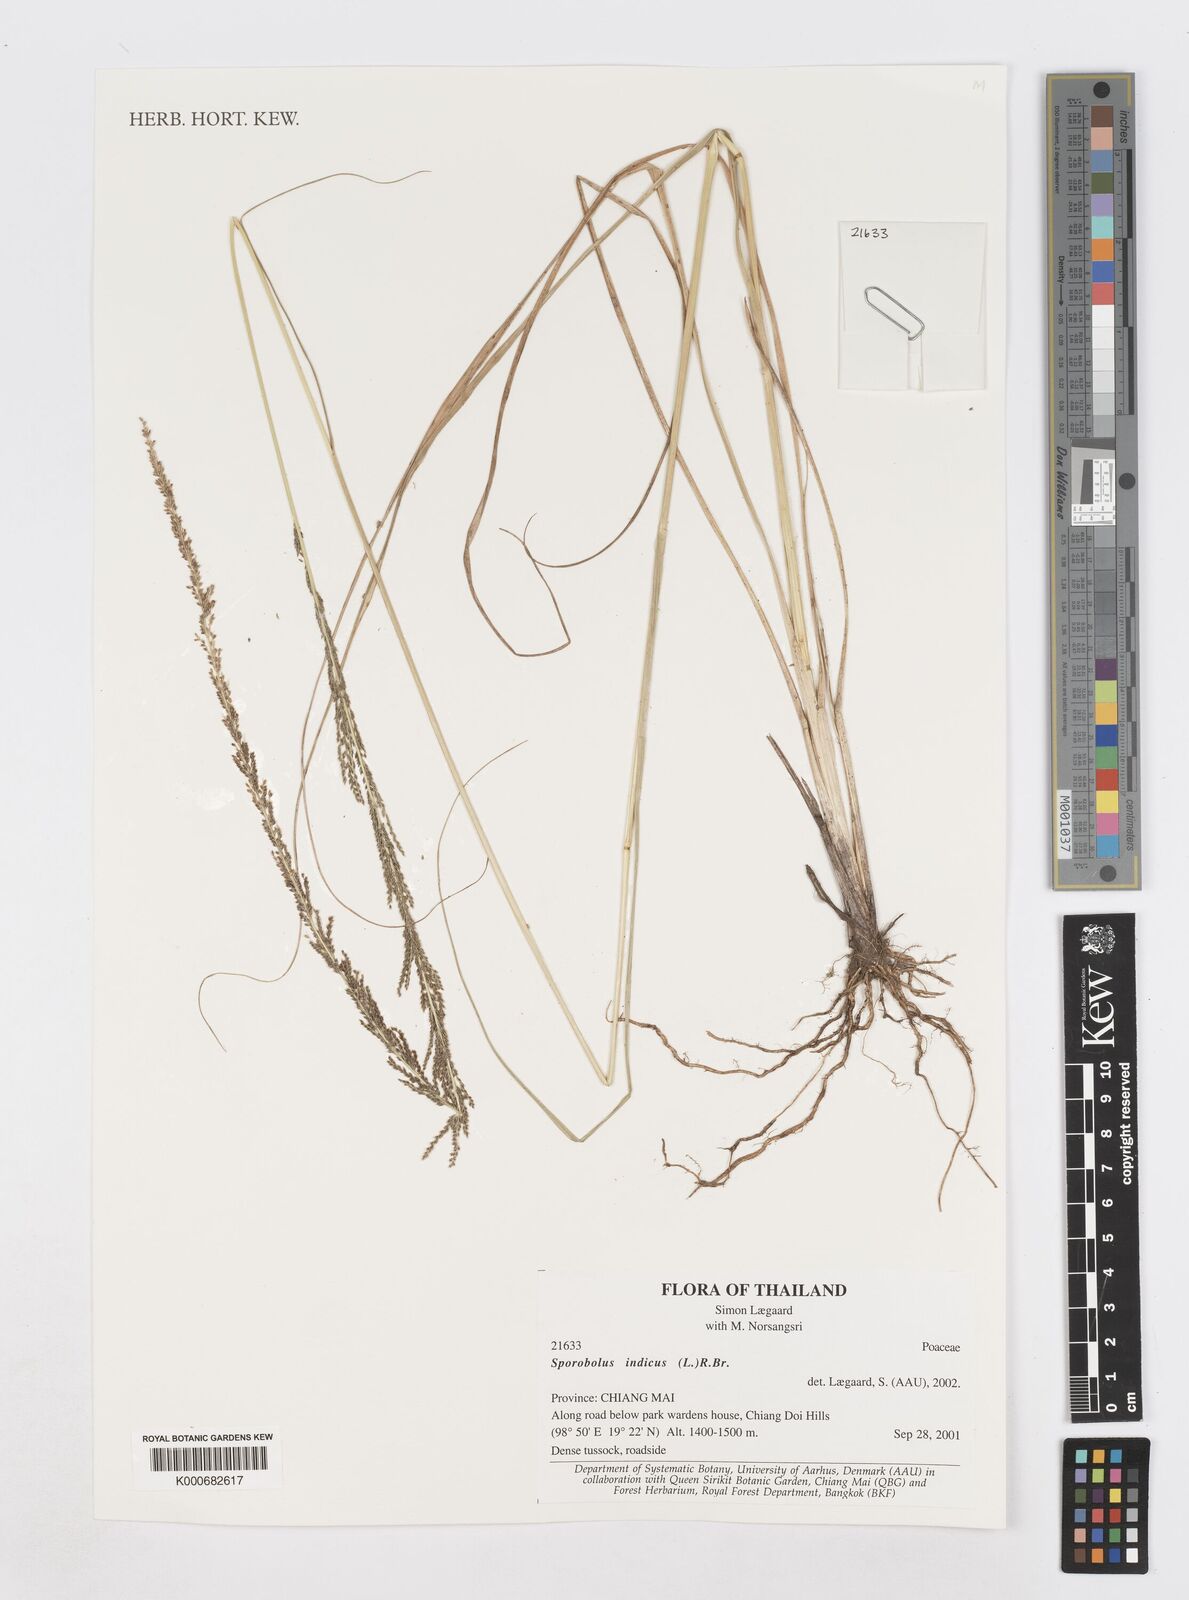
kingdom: Plantae
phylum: Tracheophyta
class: Liliopsida
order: Poales
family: Poaceae
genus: Sporobolus
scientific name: Sporobolus fertilis
